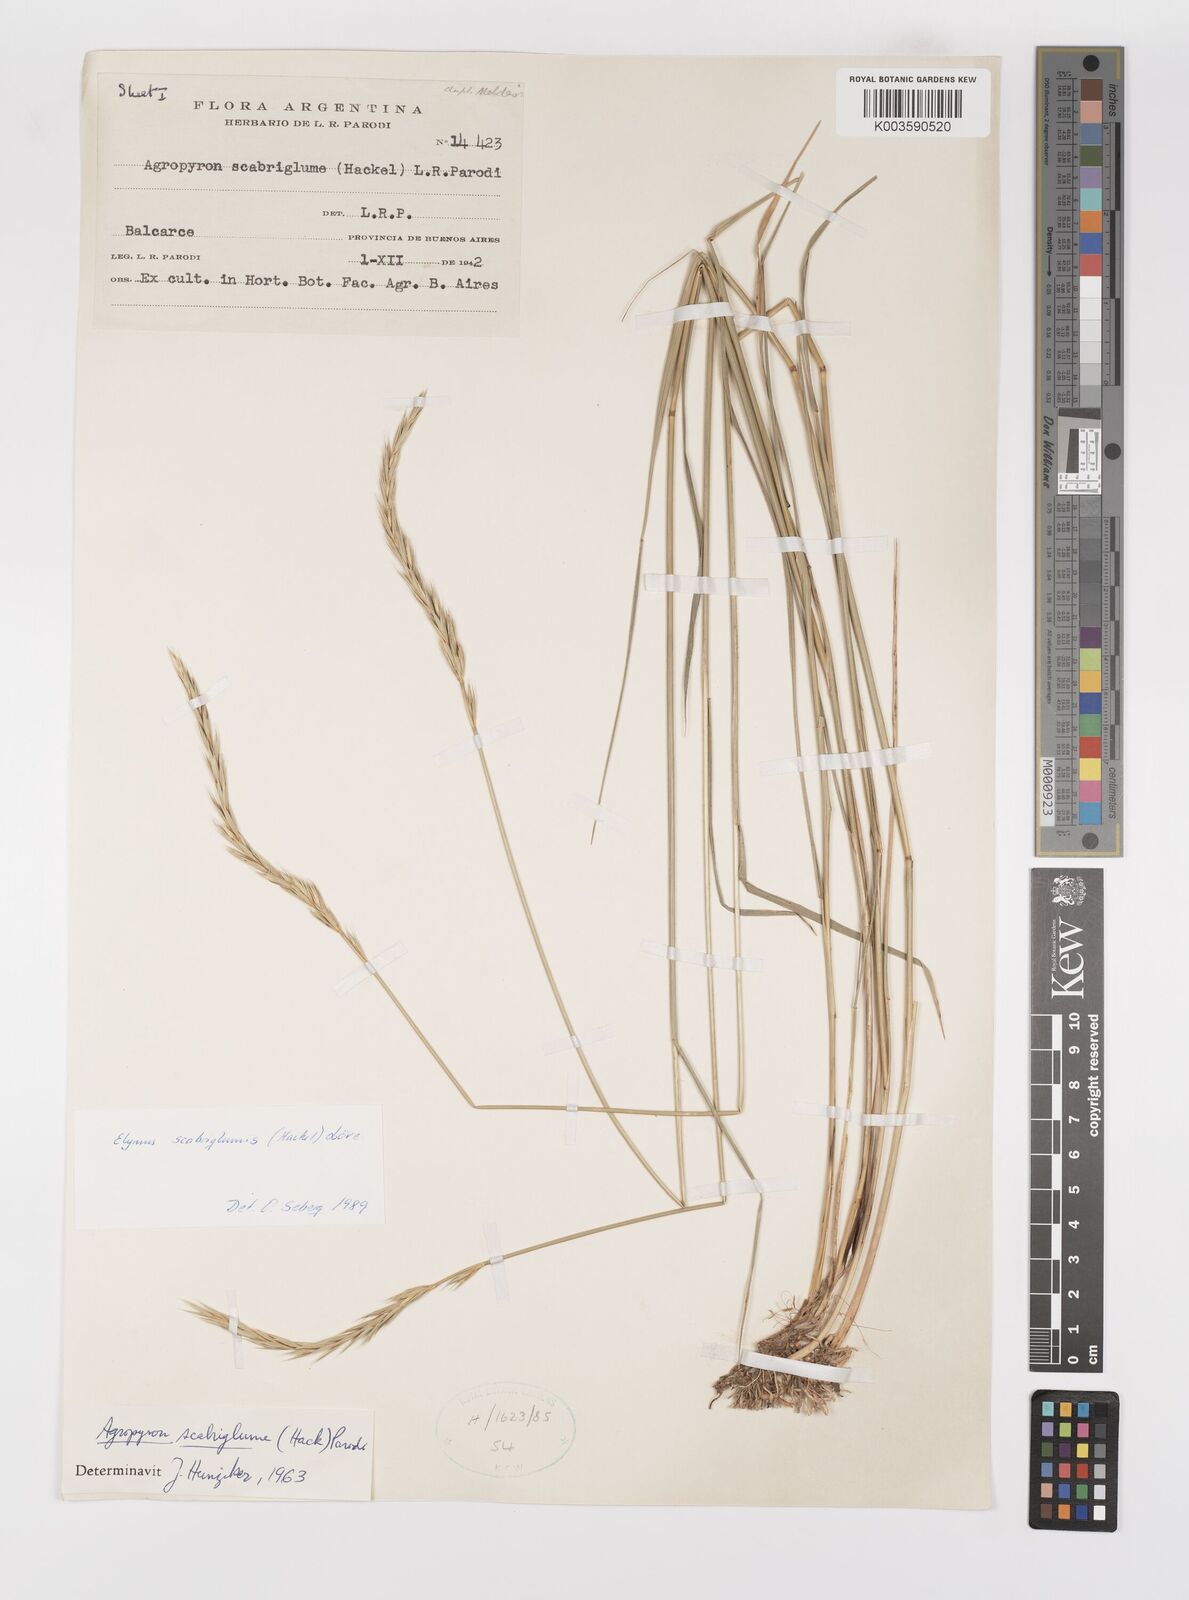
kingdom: Plantae
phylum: Tracheophyta
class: Liliopsida
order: Poales
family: Poaceae
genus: Elymus
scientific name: Elymus scabriglumis
